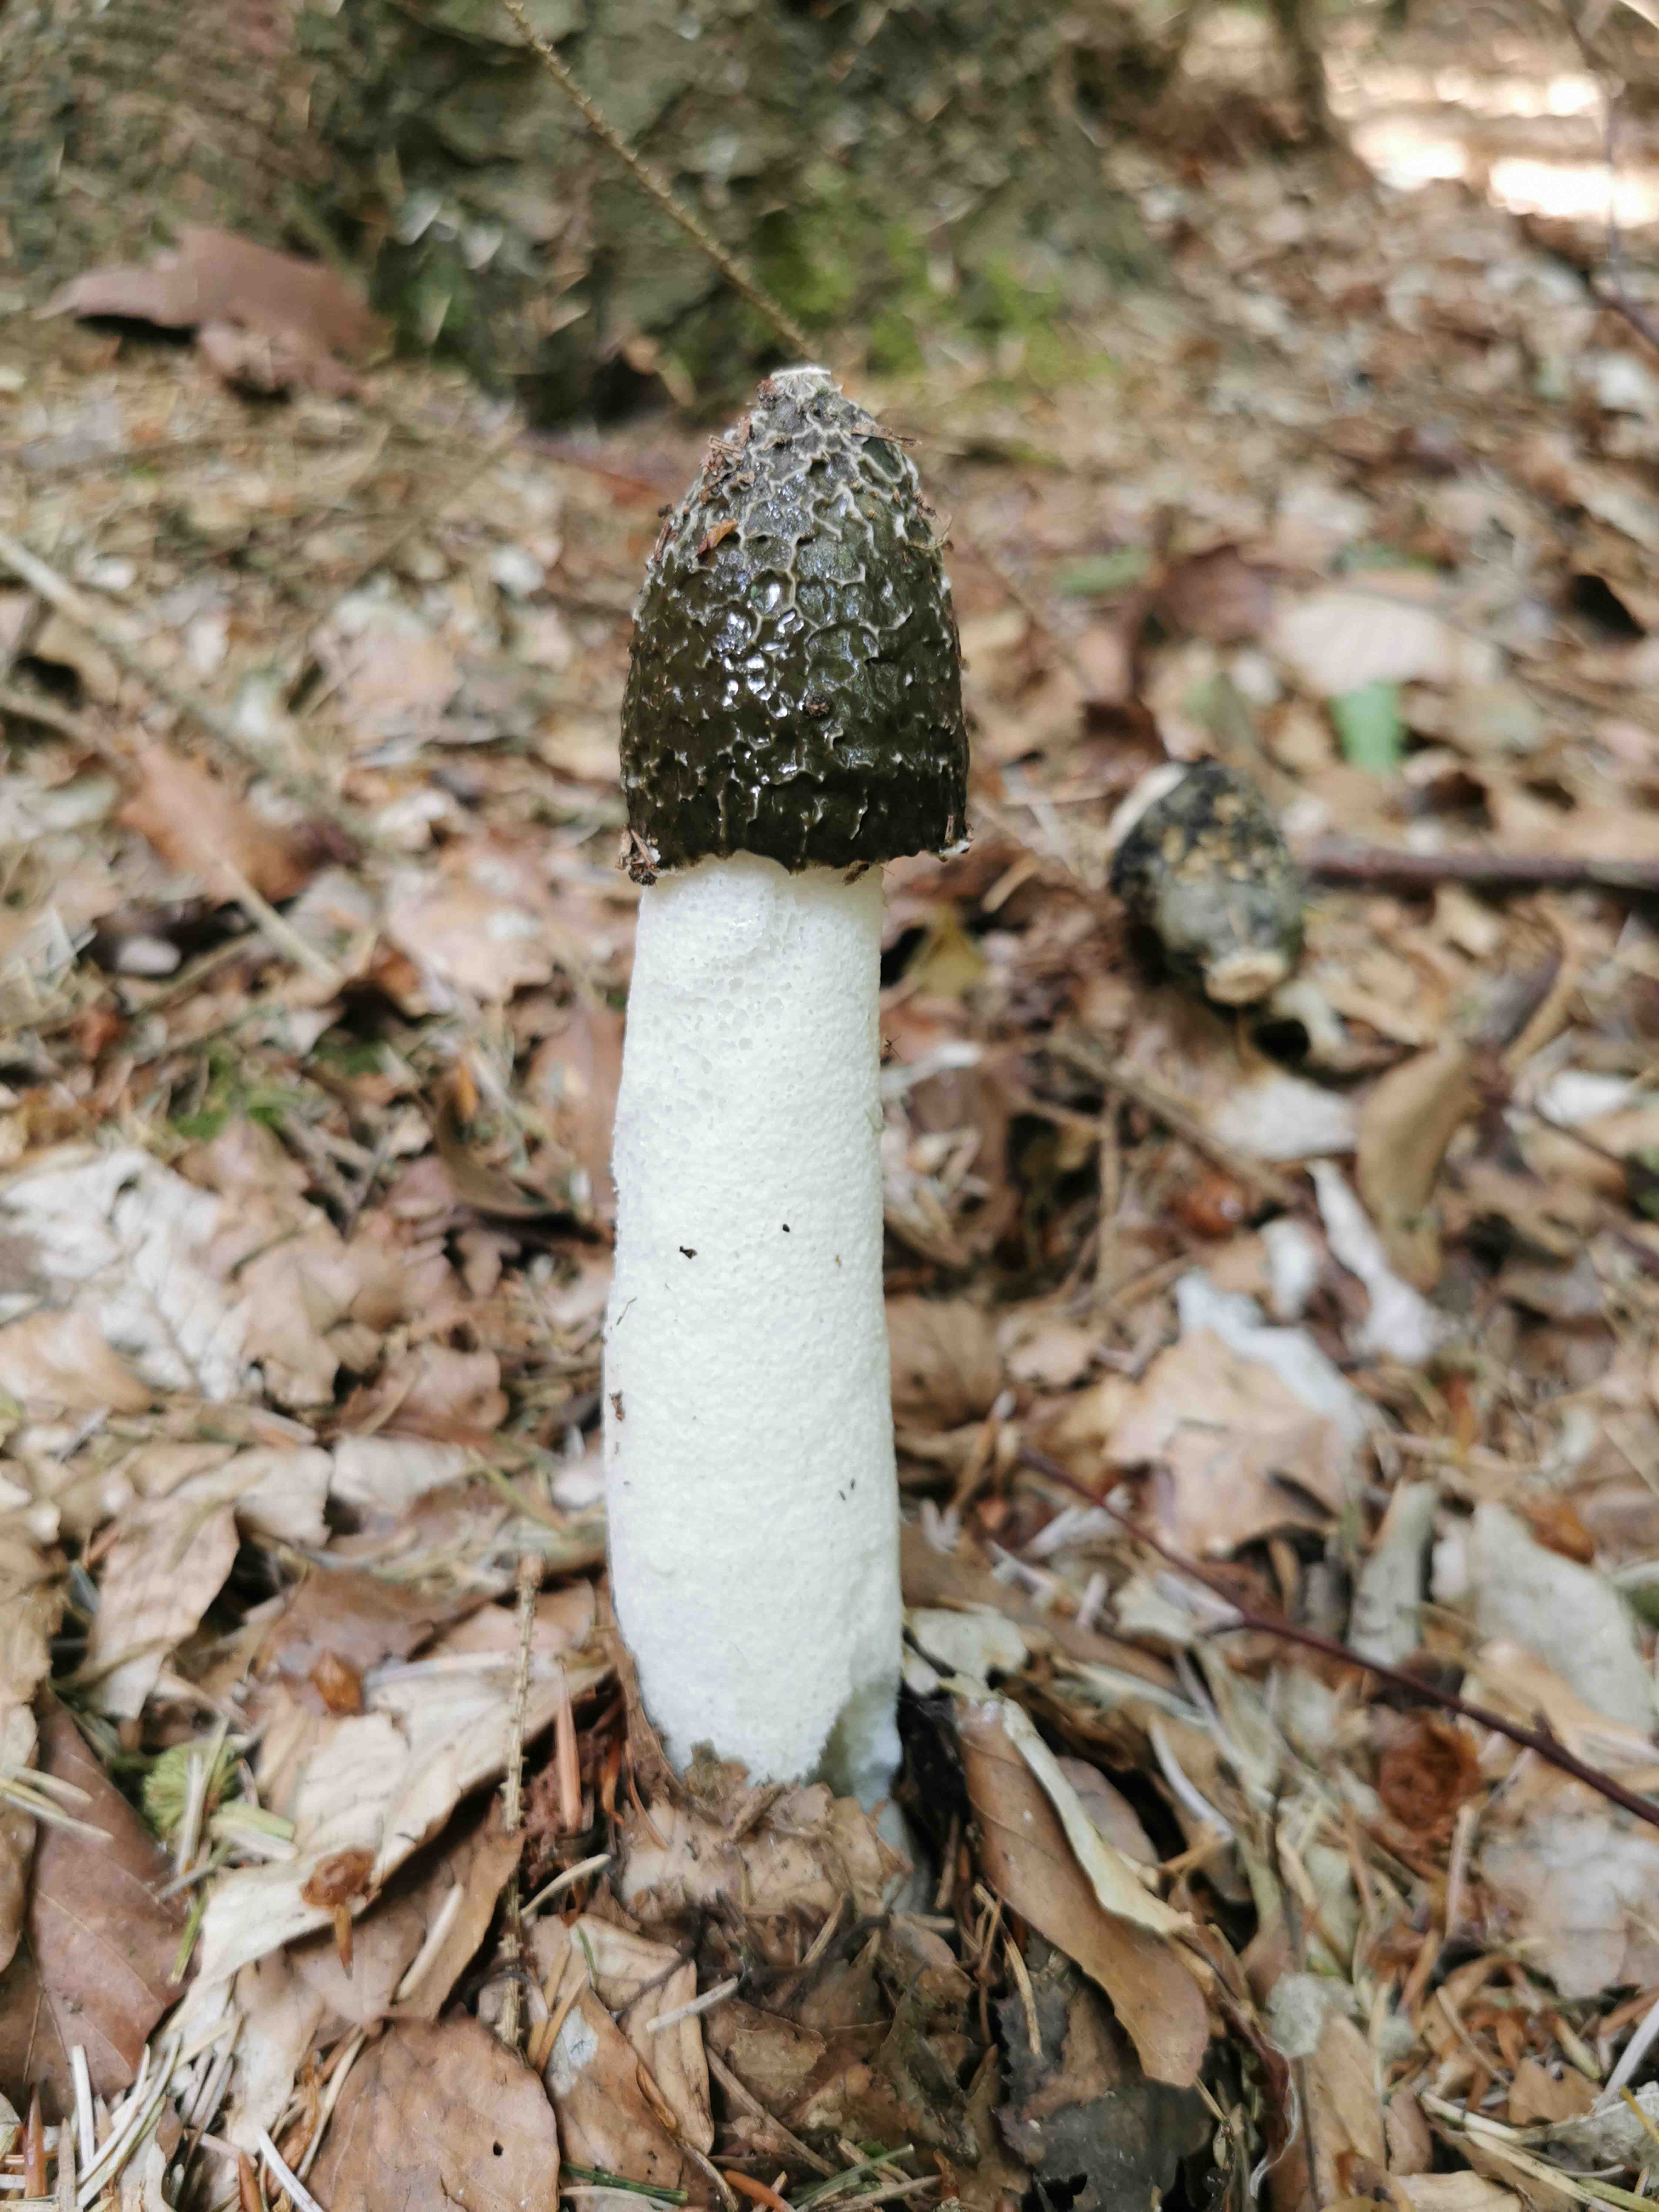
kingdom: Fungi
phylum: Basidiomycota
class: Agaricomycetes
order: Phallales
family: Phallaceae
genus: Phallus
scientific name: Phallus impudicus
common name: almindelig stinksvamp
